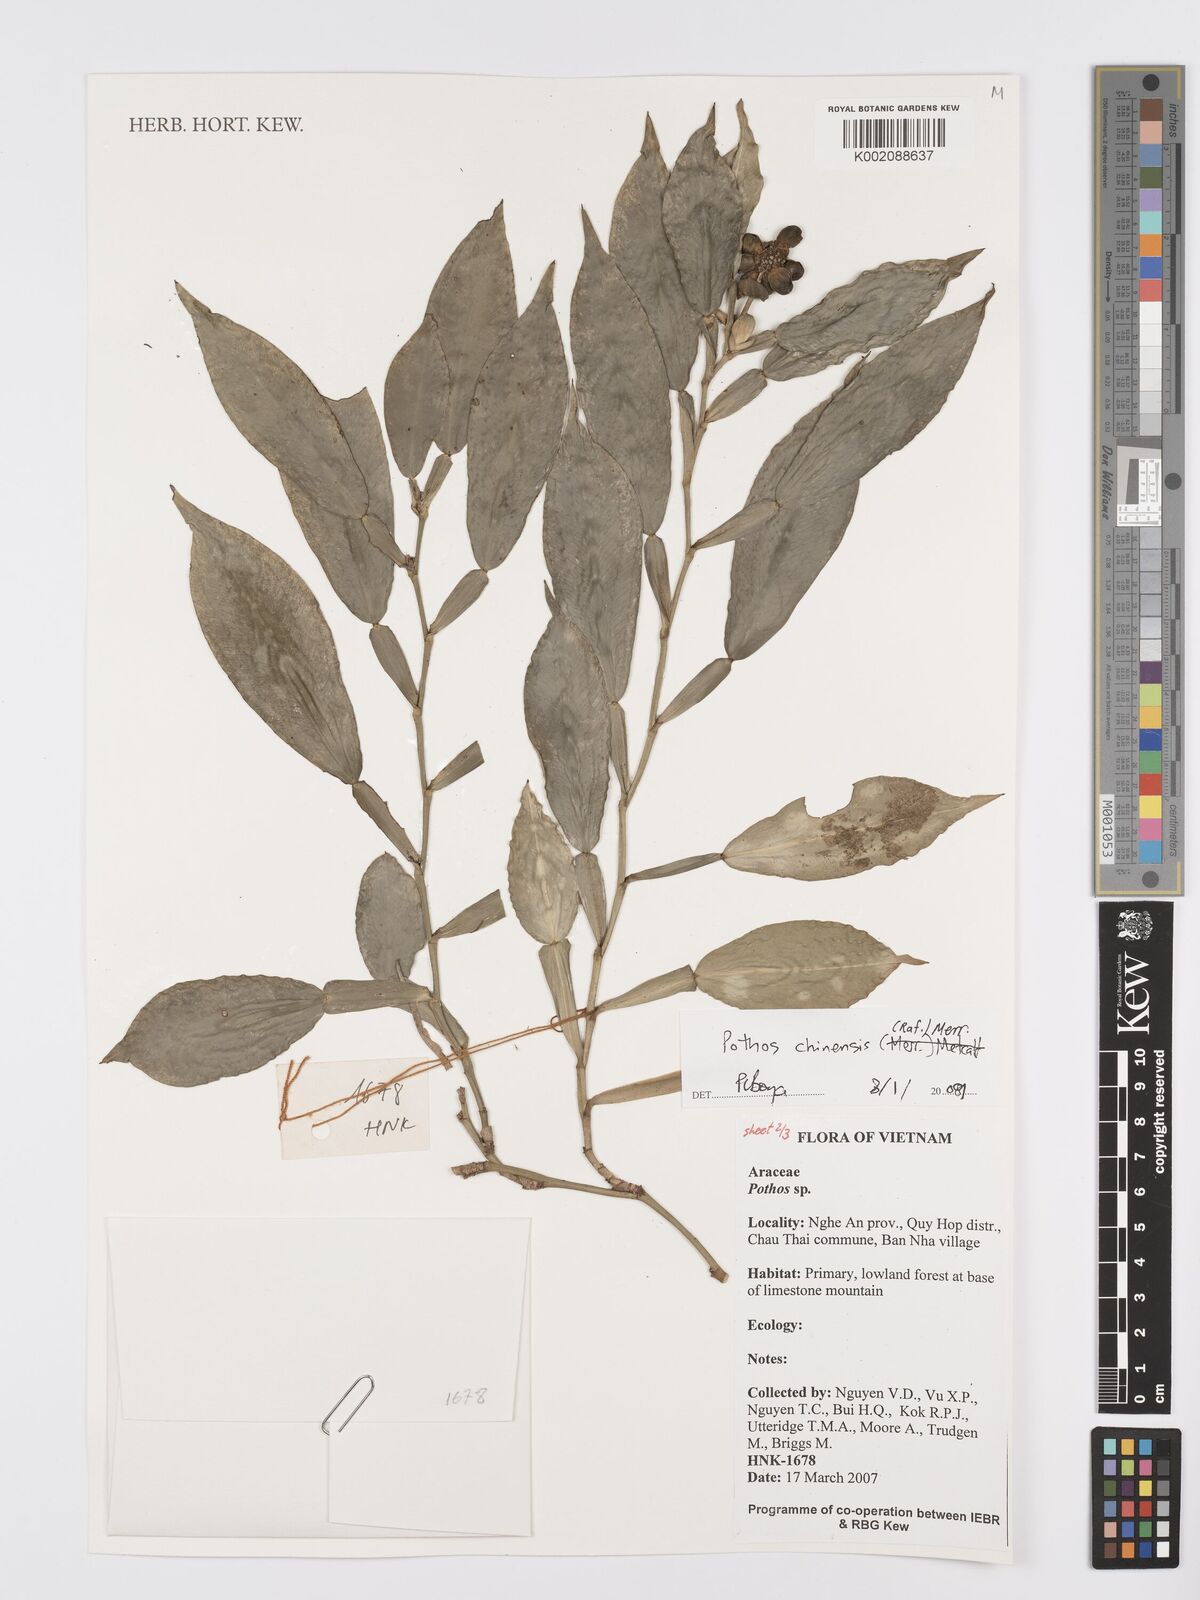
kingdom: Plantae
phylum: Tracheophyta
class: Liliopsida
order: Alismatales
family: Araceae
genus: Pothos
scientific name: Pothos chinensis
